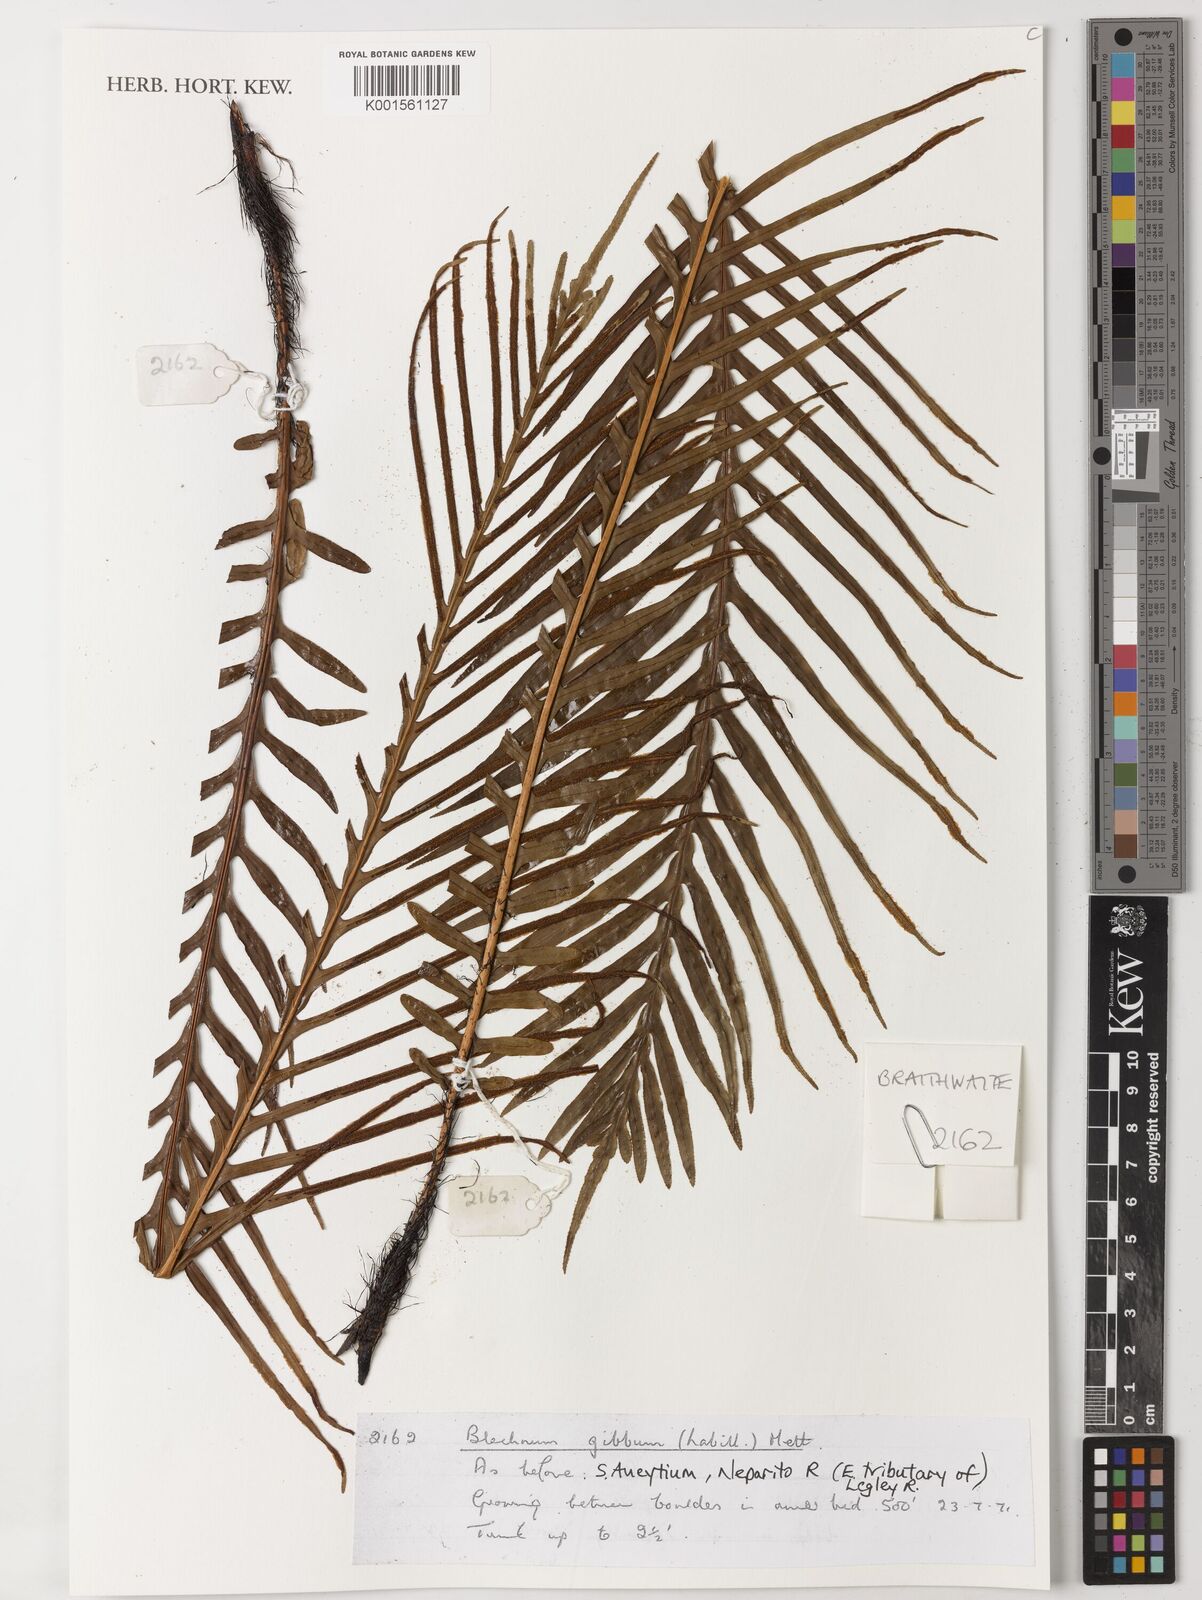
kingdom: Plantae
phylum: Tracheophyta
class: Polypodiopsida
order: Polypodiales
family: Blechnaceae
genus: Oceaniopteris
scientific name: Oceaniopteris gibba
